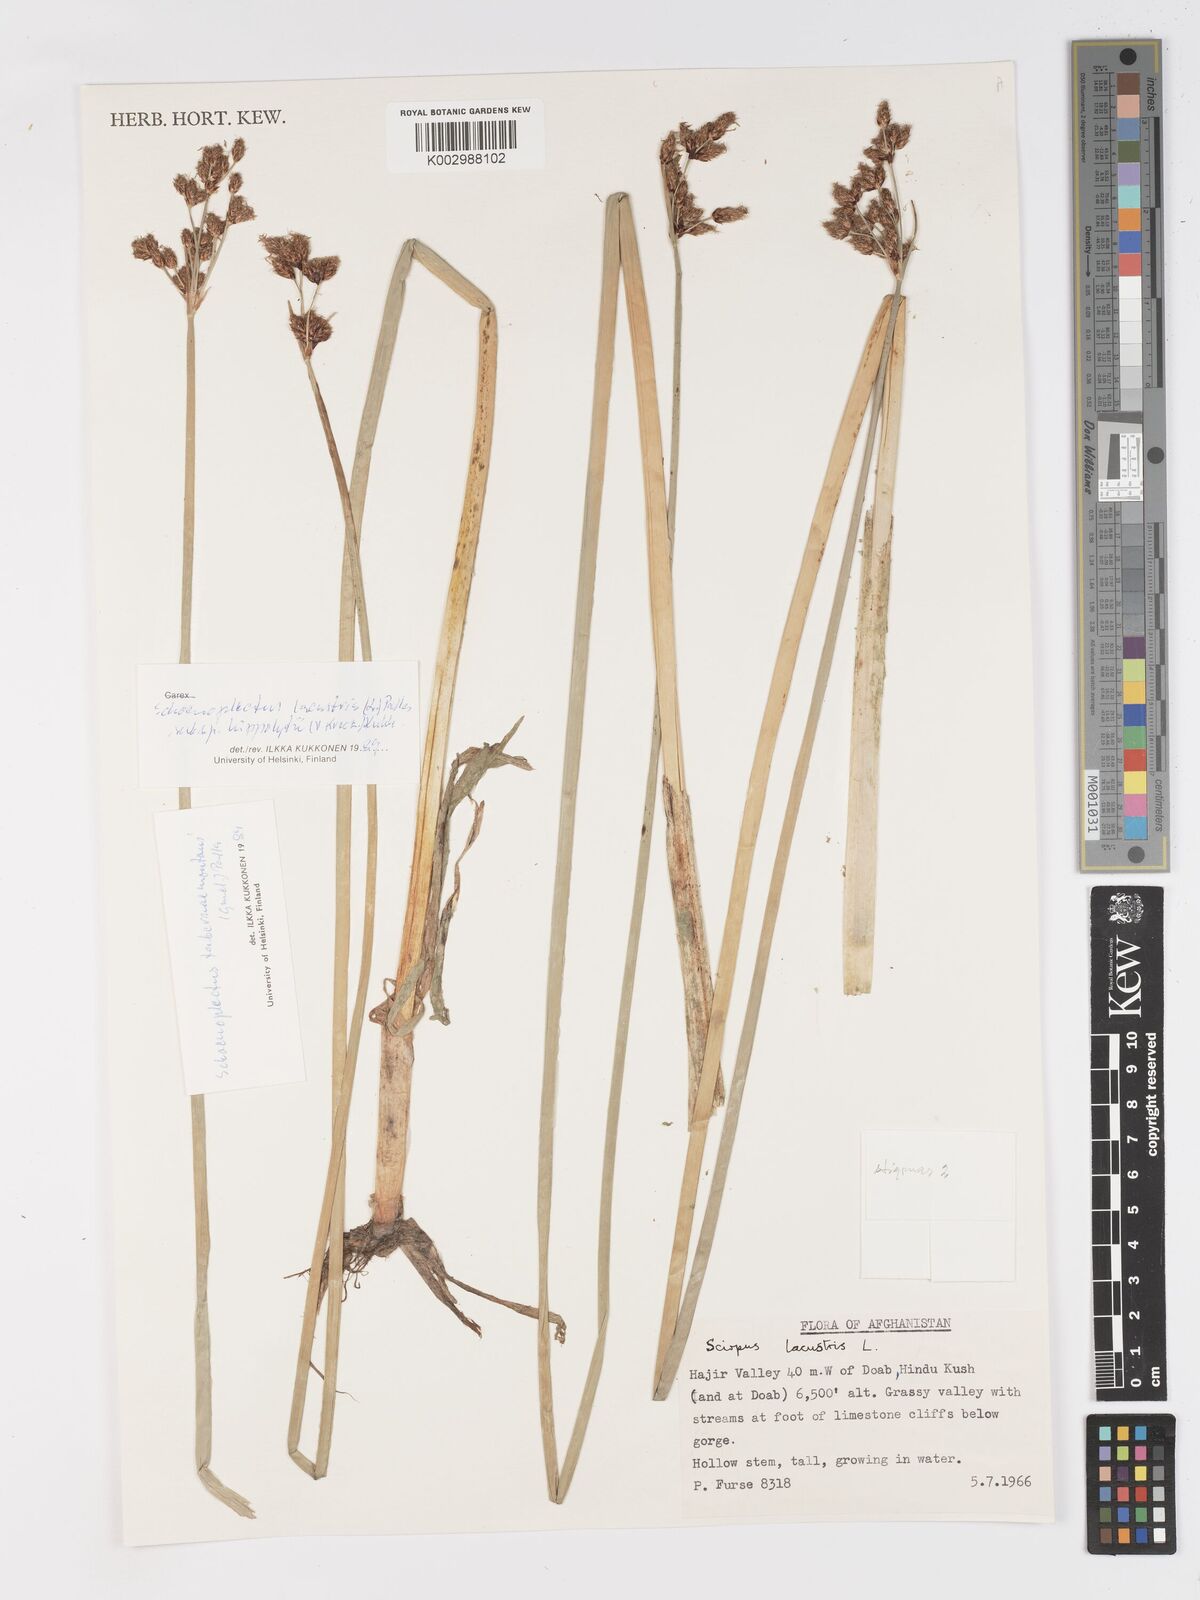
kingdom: Plantae
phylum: Tracheophyta
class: Liliopsida
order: Poales
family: Cyperaceae
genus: Schoenoplectus
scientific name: Schoenoplectus lacustris
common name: Common club-rush
